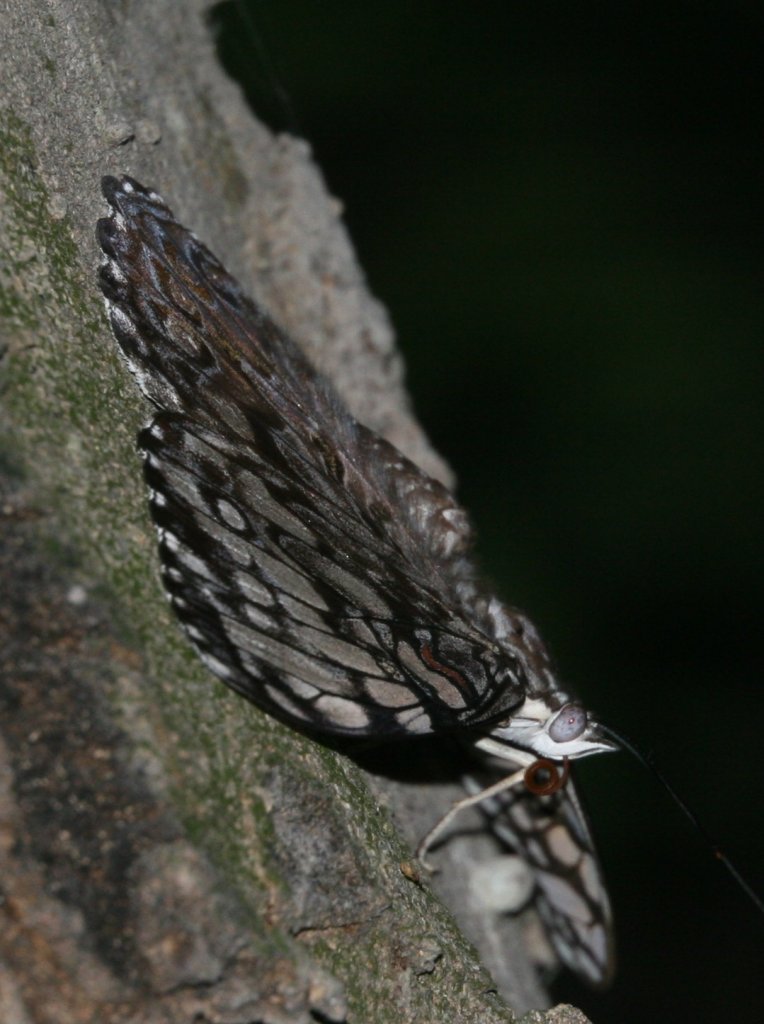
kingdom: Animalia
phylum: Arthropoda
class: Insecta
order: Lepidoptera
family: Nymphalidae
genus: Hamadryas
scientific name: Hamadryas guatemalena
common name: Guatemalan Cracker
